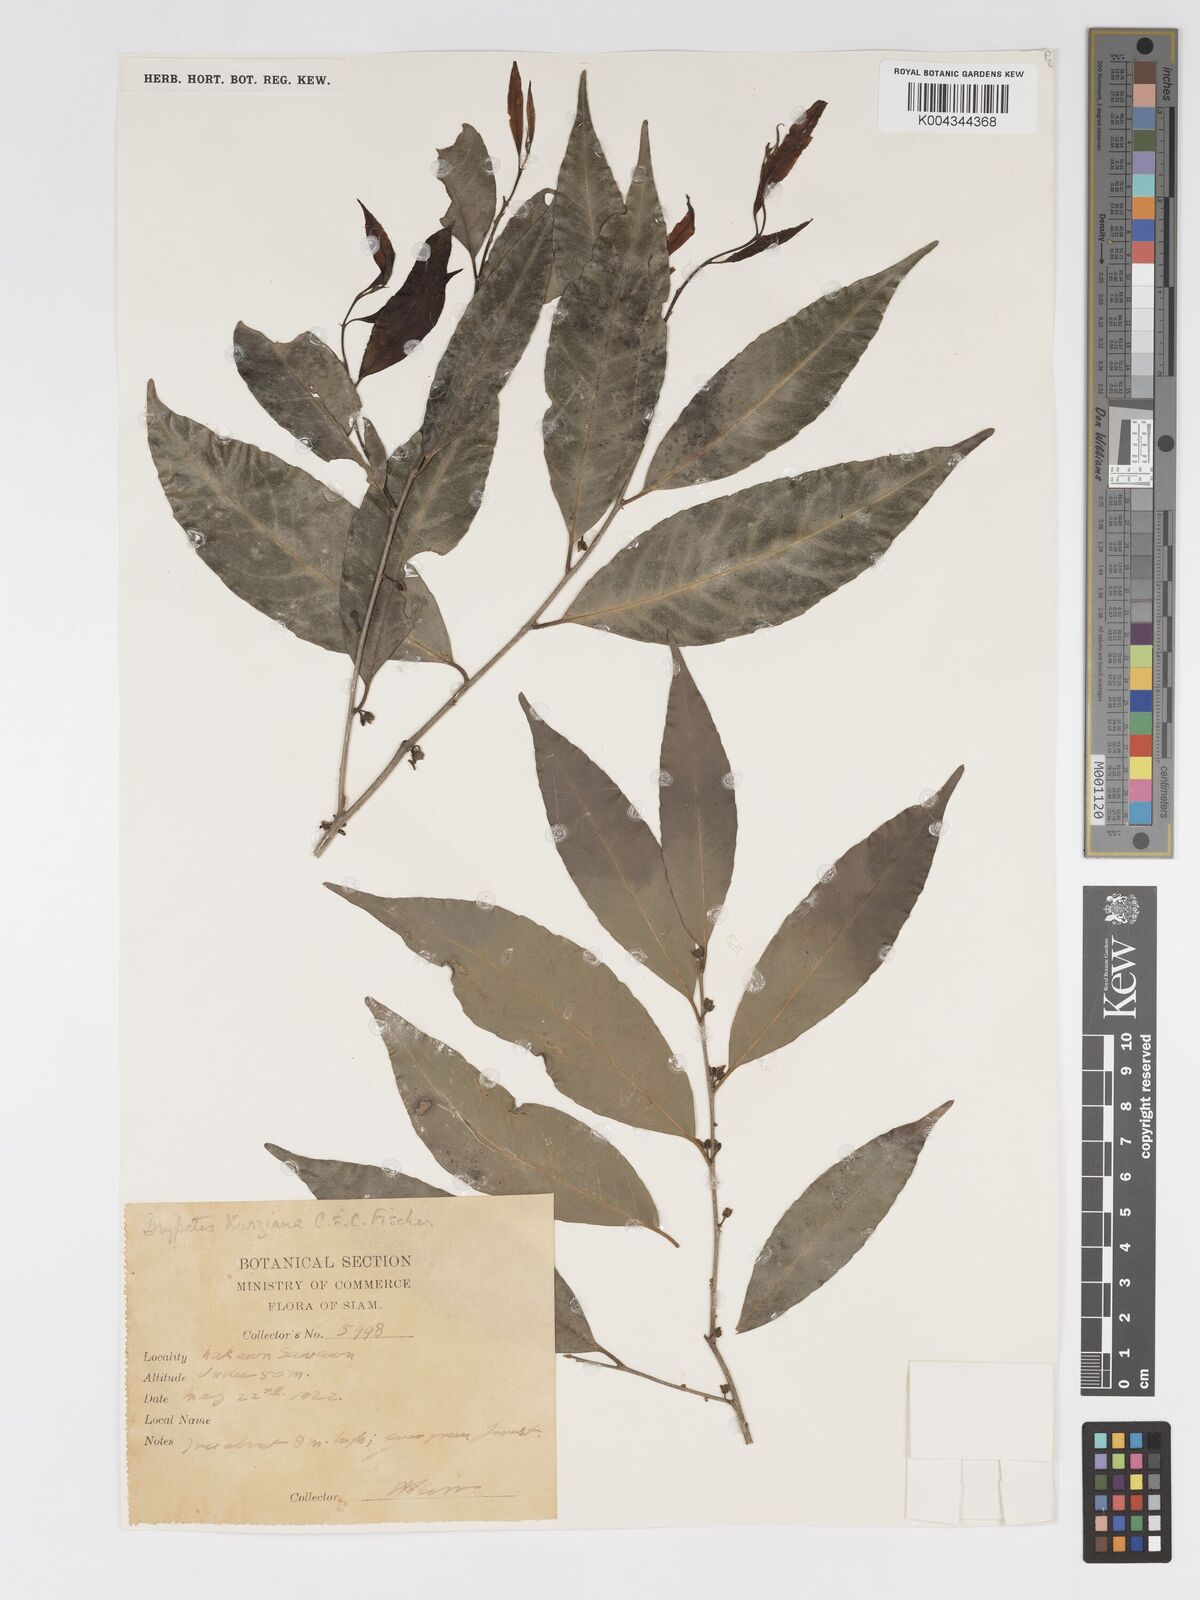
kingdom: Plantae
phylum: Tracheophyta
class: Magnoliopsida
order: Malpighiales
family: Putranjivaceae
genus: Drypetes
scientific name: Drypetes cambodica
